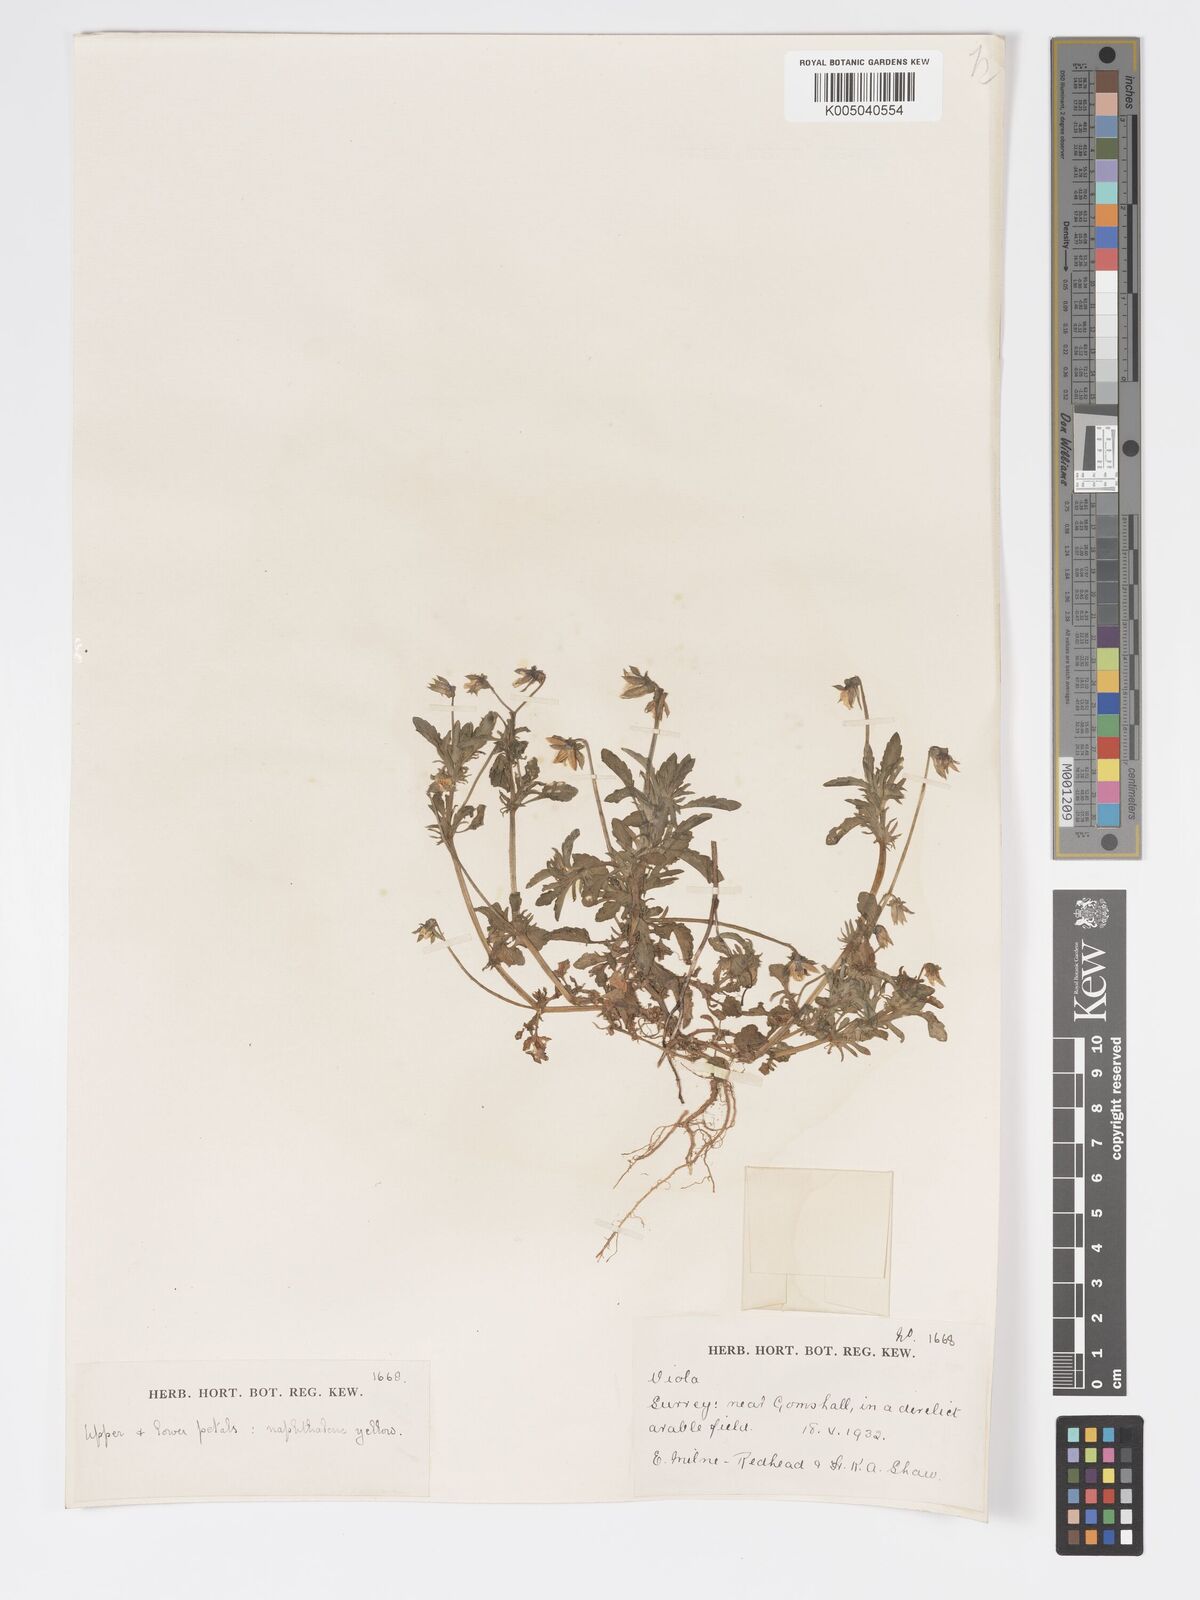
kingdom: Plantae
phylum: Tracheophyta
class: Magnoliopsida
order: Malpighiales
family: Violaceae
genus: Viola
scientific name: Viola
